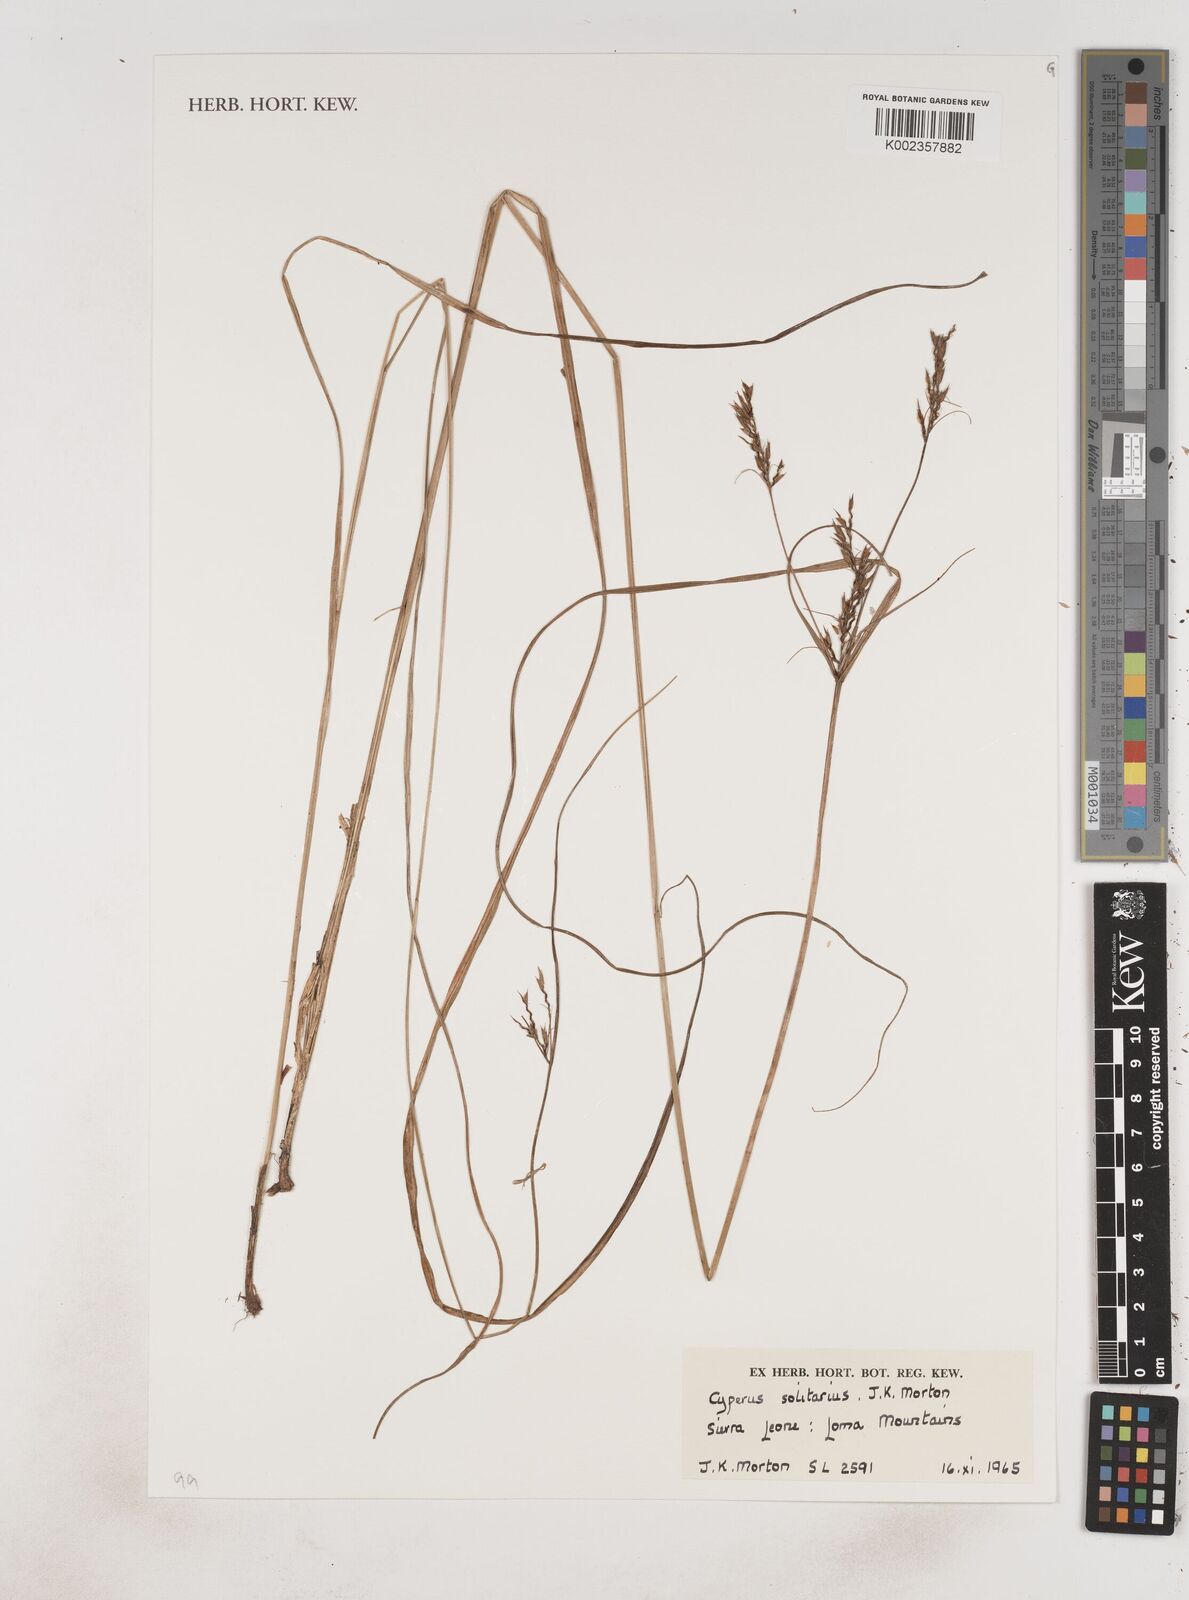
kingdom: Plantae
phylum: Tracheophyta
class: Liliopsida
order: Poales
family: Cyperaceae
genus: Cyperus
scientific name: Cyperus
